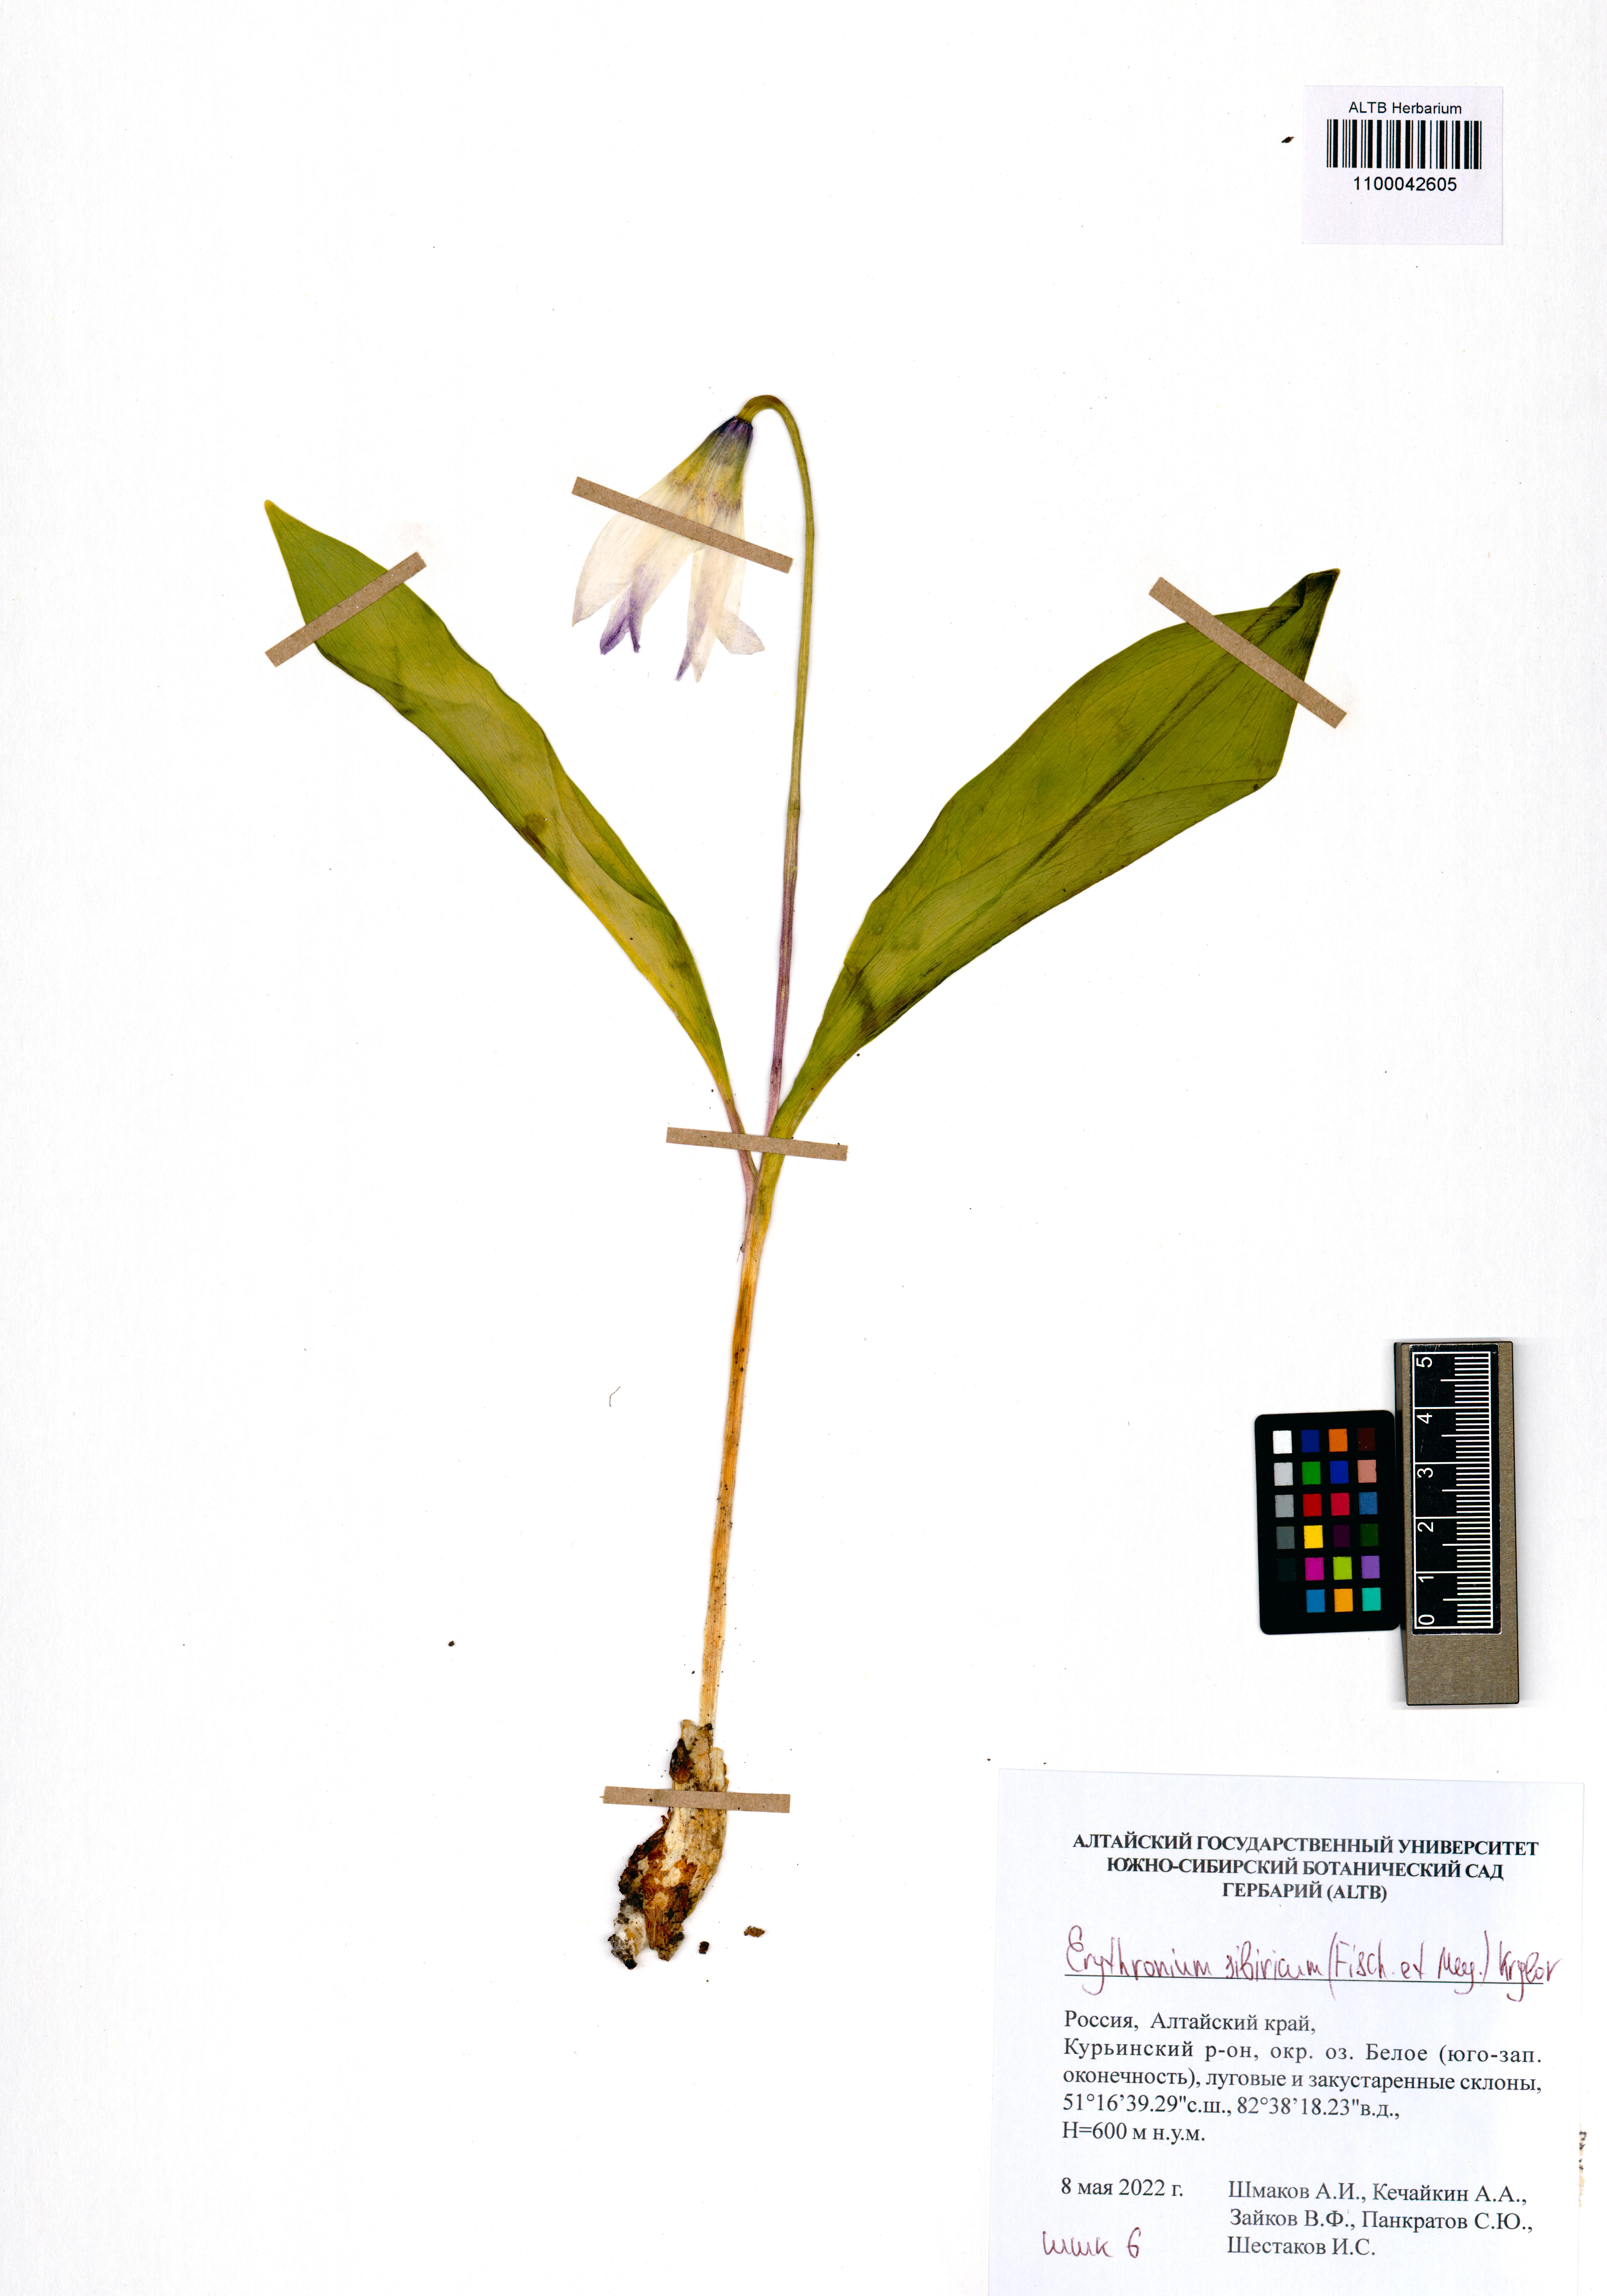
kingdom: Plantae
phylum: Tracheophyta
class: Liliopsida
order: Liliales
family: Liliaceae
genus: Erythronium
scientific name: Erythronium sibiricum
